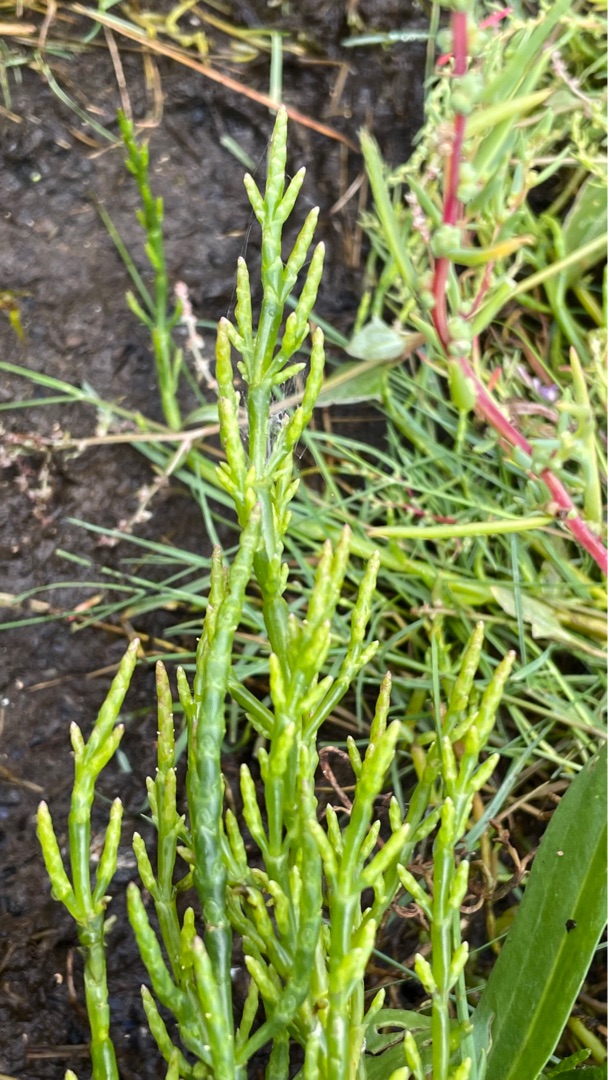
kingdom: Plantae
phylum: Tracheophyta
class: Magnoliopsida
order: Caryophyllales
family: Amaranthaceae
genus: Salicornia
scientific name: Salicornia europaea
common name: Almindelig salturt
